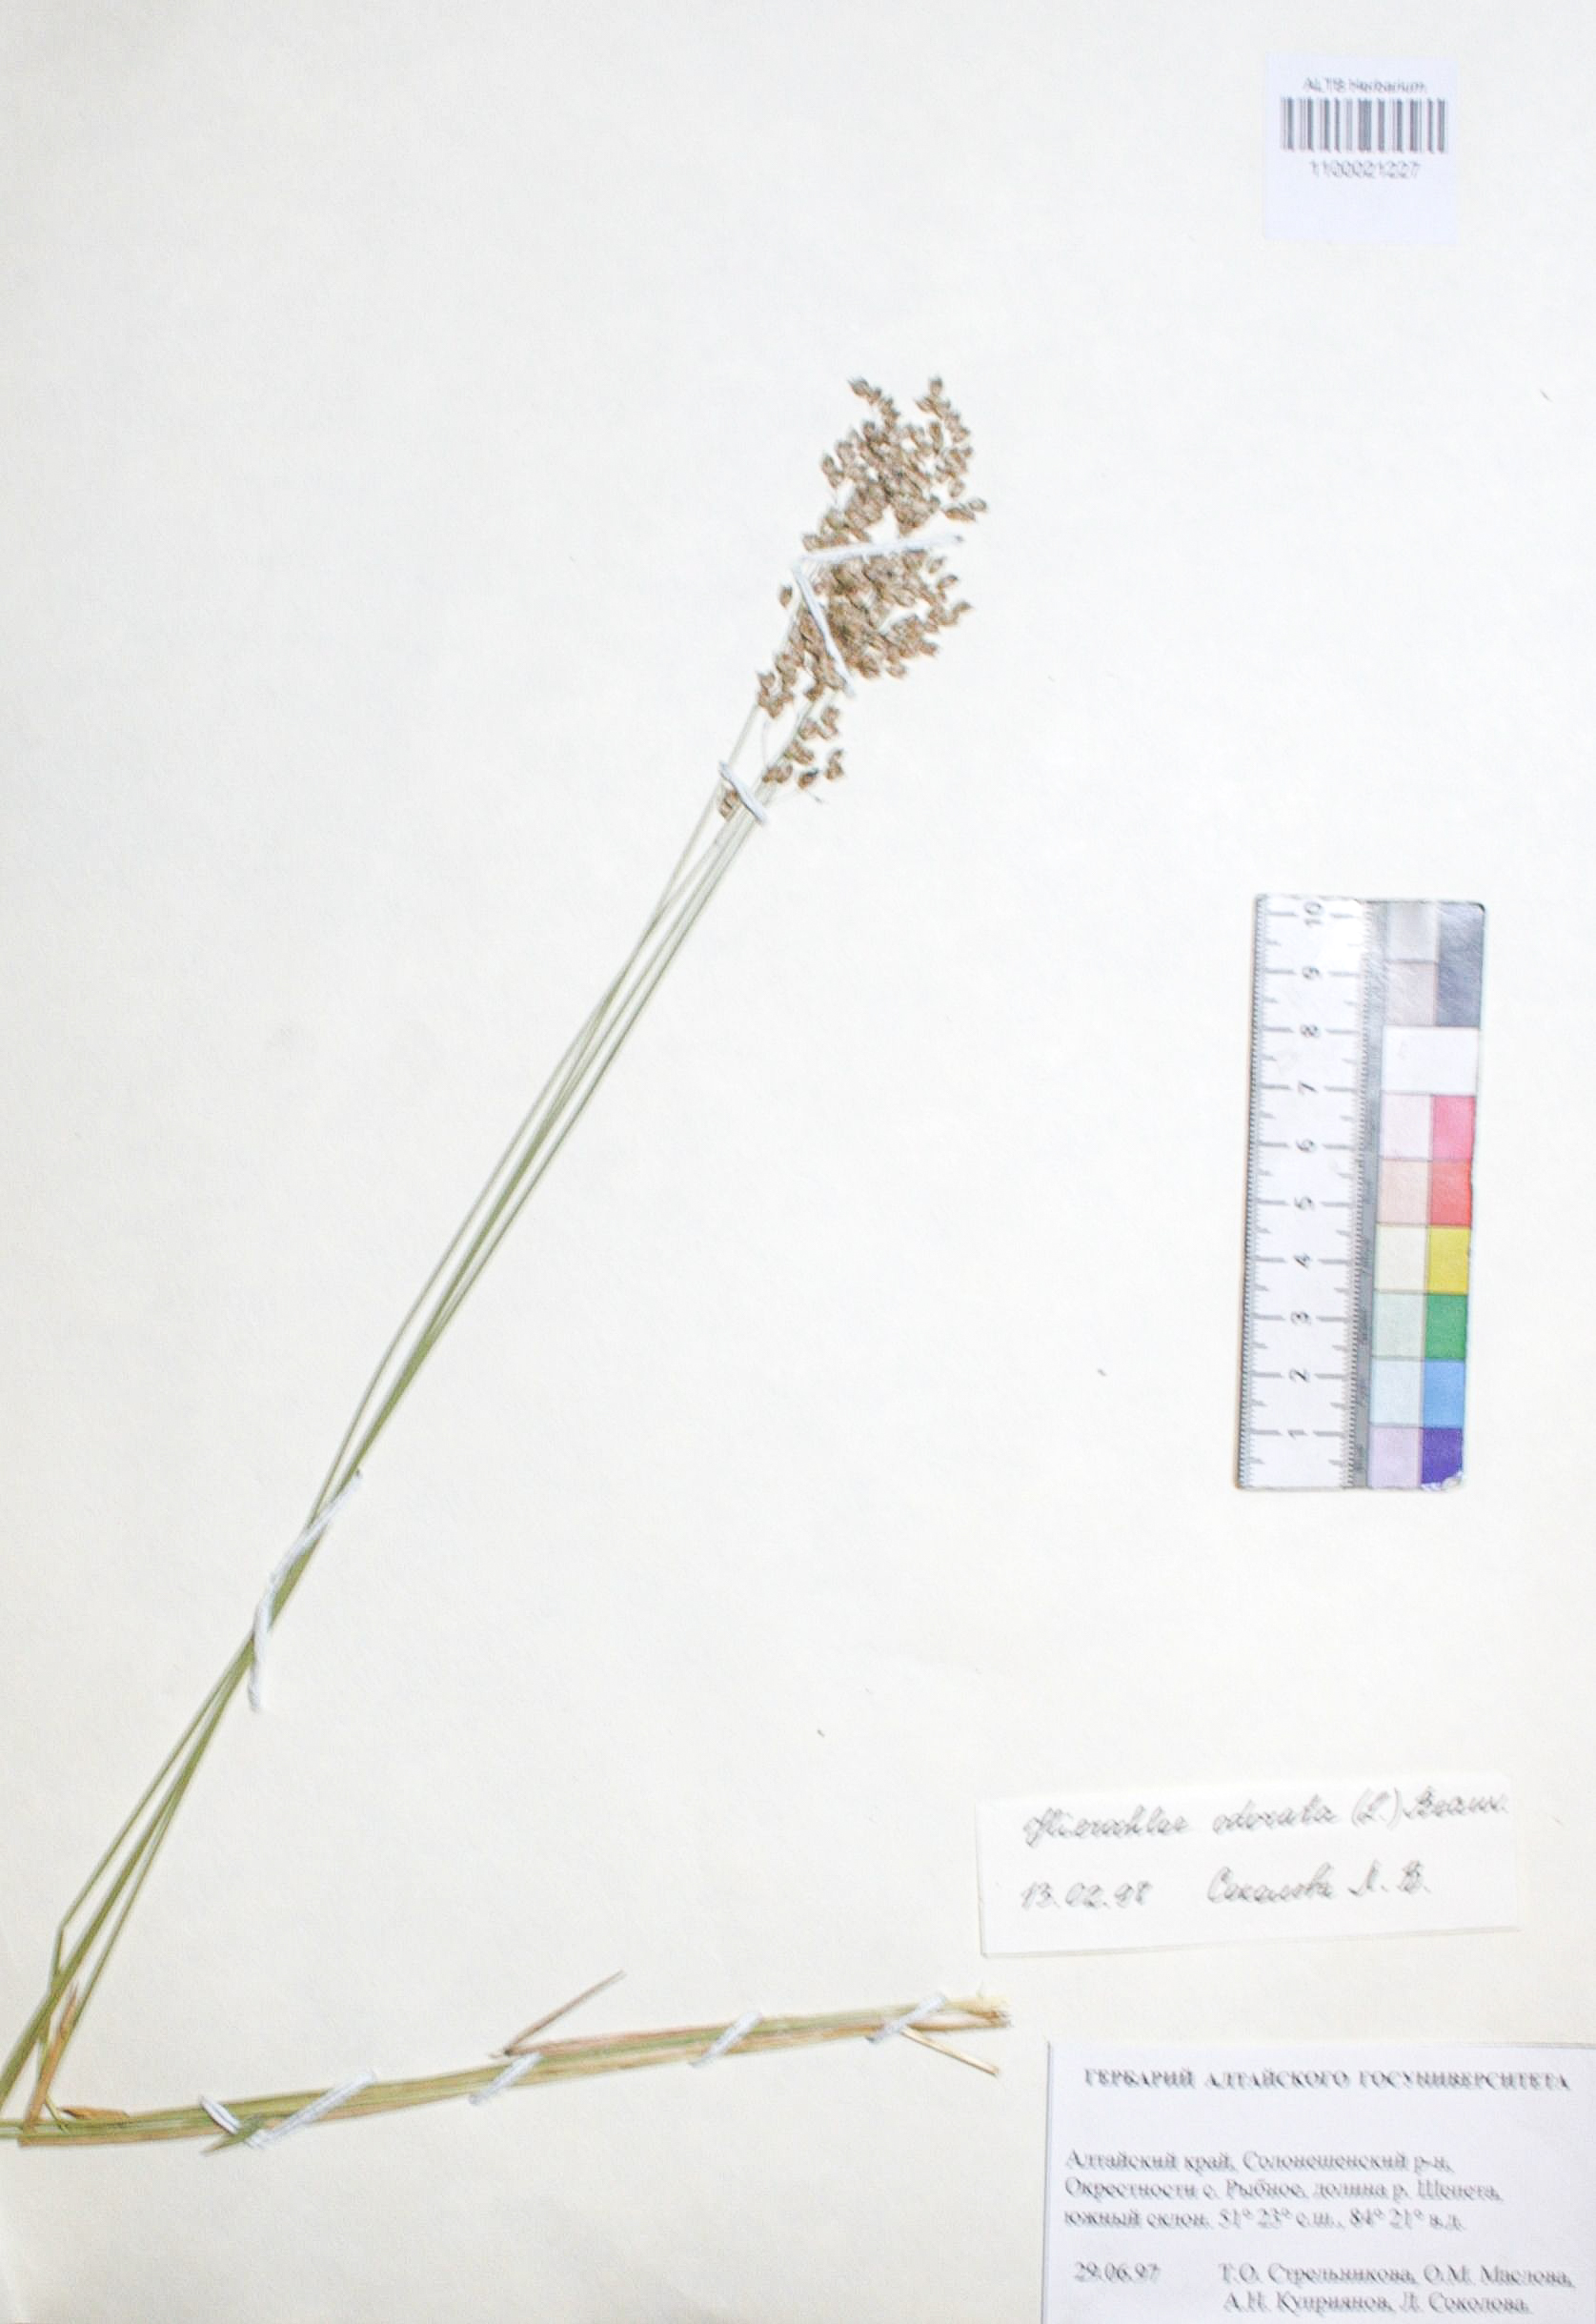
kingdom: Plantae
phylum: Tracheophyta
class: Liliopsida
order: Poales
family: Poaceae
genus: Anthoxanthum
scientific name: Anthoxanthum nitens
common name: Holy grass
